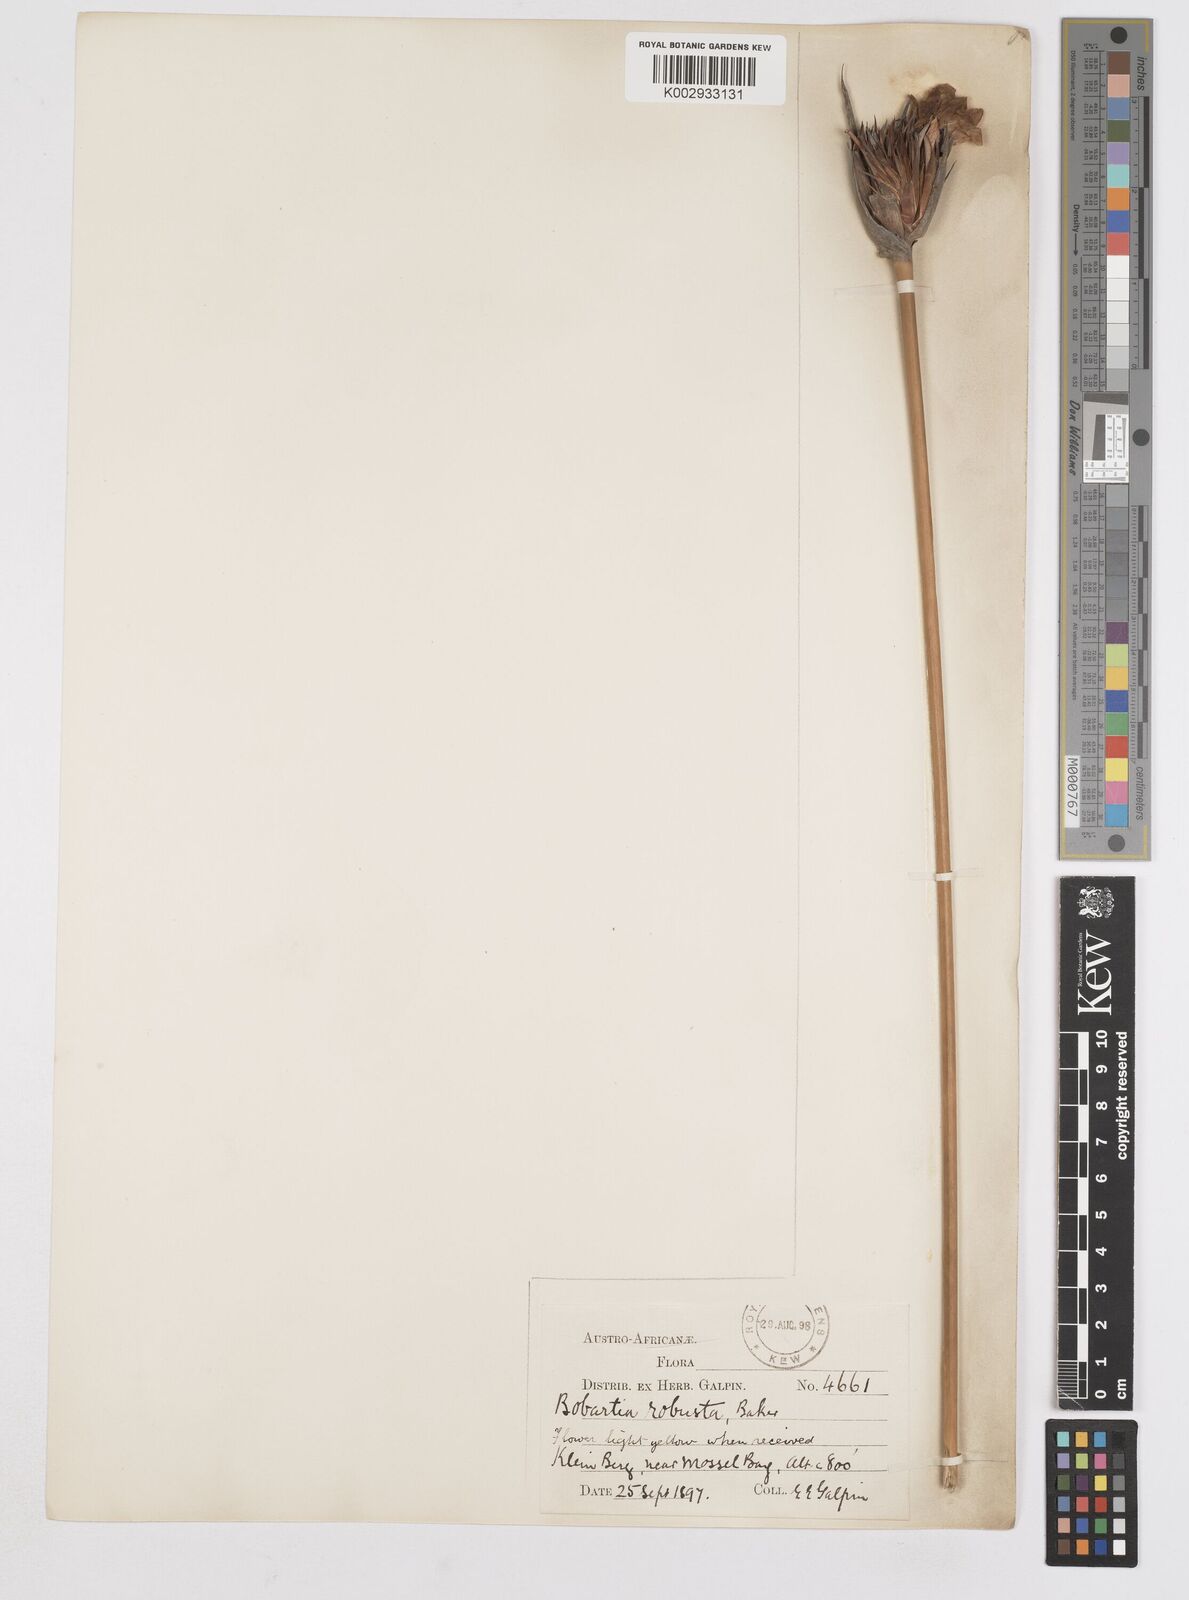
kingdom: Plantae
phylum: Tracheophyta
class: Liliopsida
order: Asparagales
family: Iridaceae
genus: Bobartia
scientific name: Bobartia robusta
